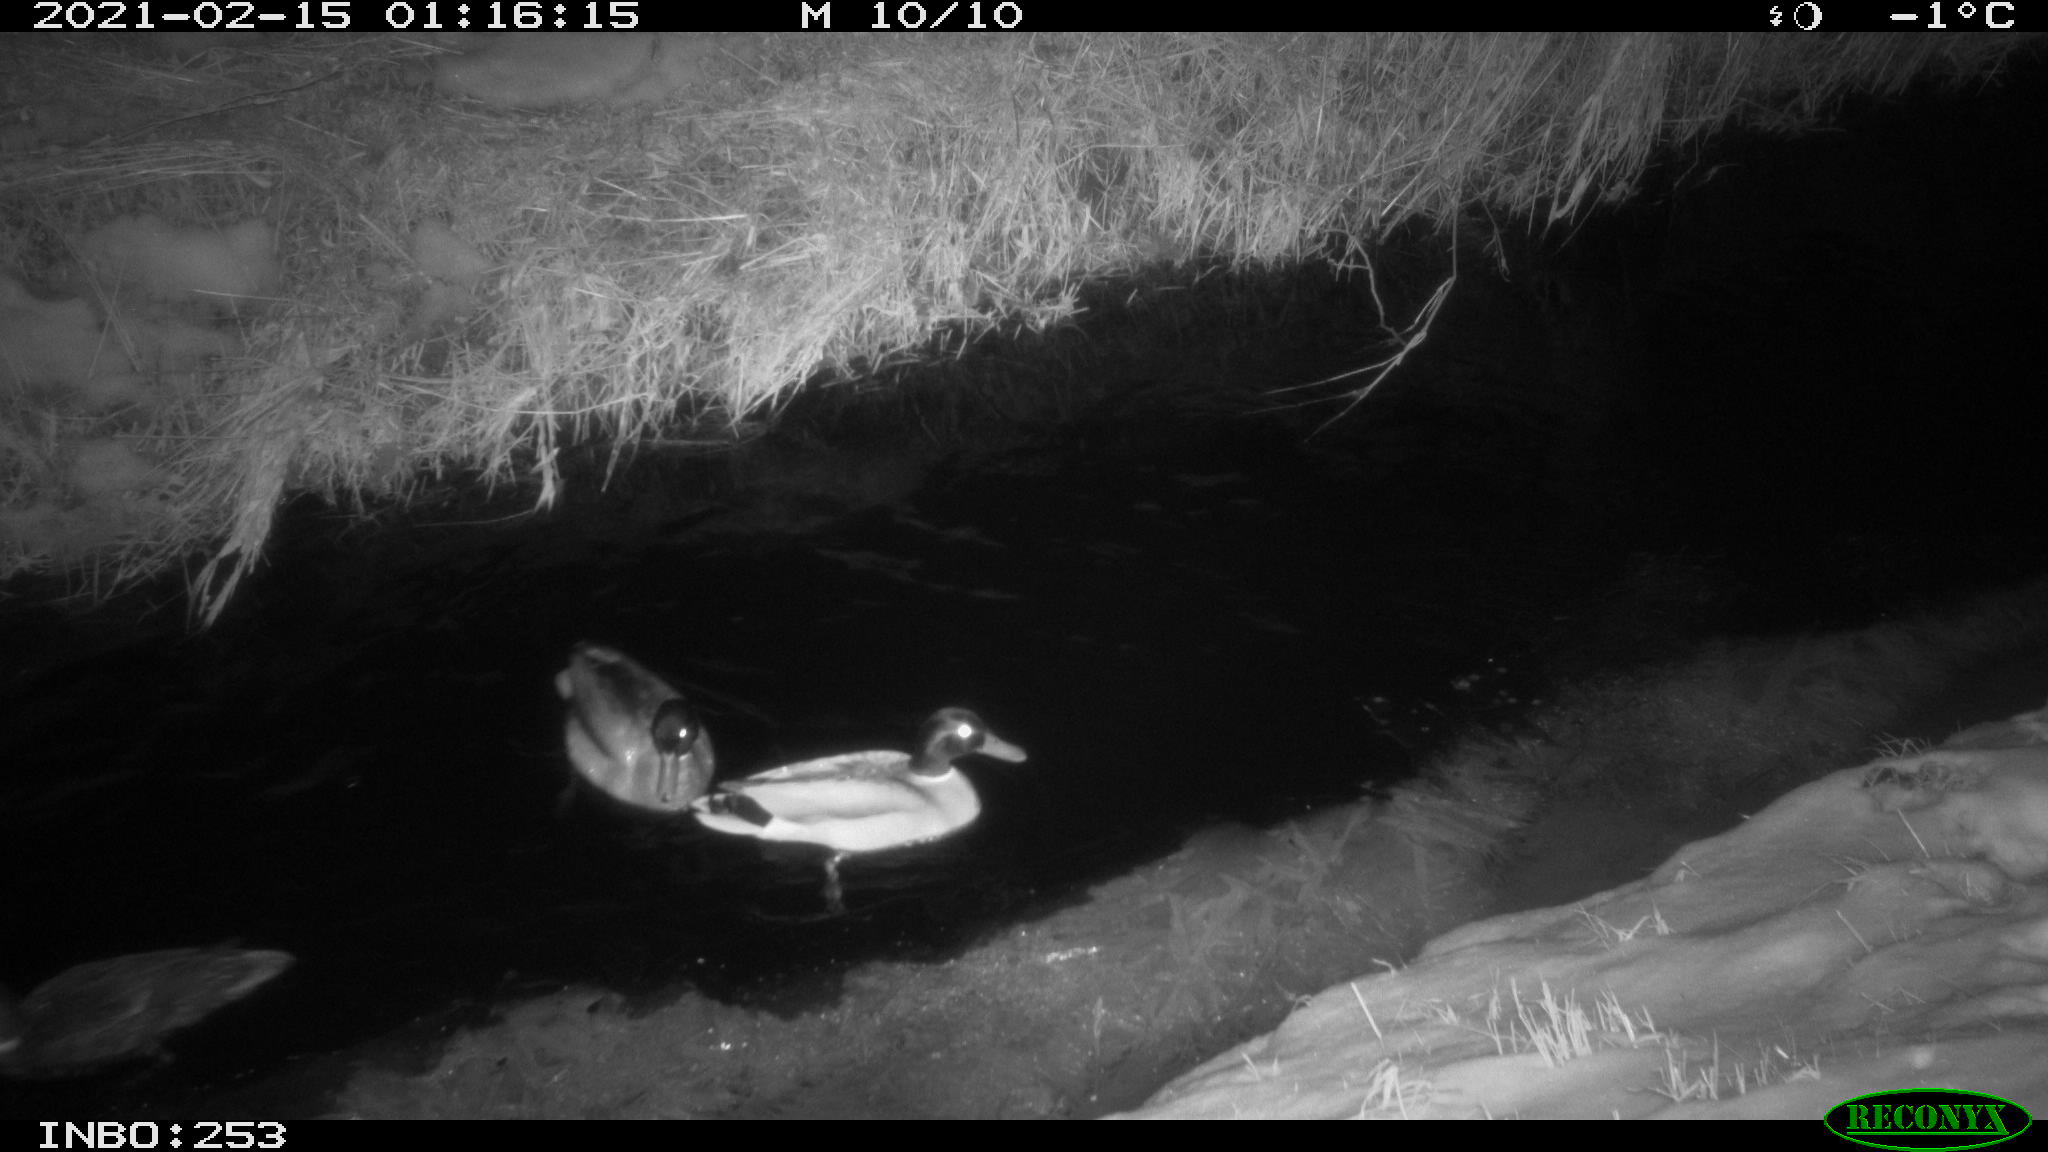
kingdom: Animalia
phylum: Chordata
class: Aves
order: Anseriformes
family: Anatidae
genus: Anas
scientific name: Anas platyrhynchos
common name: Mallard
